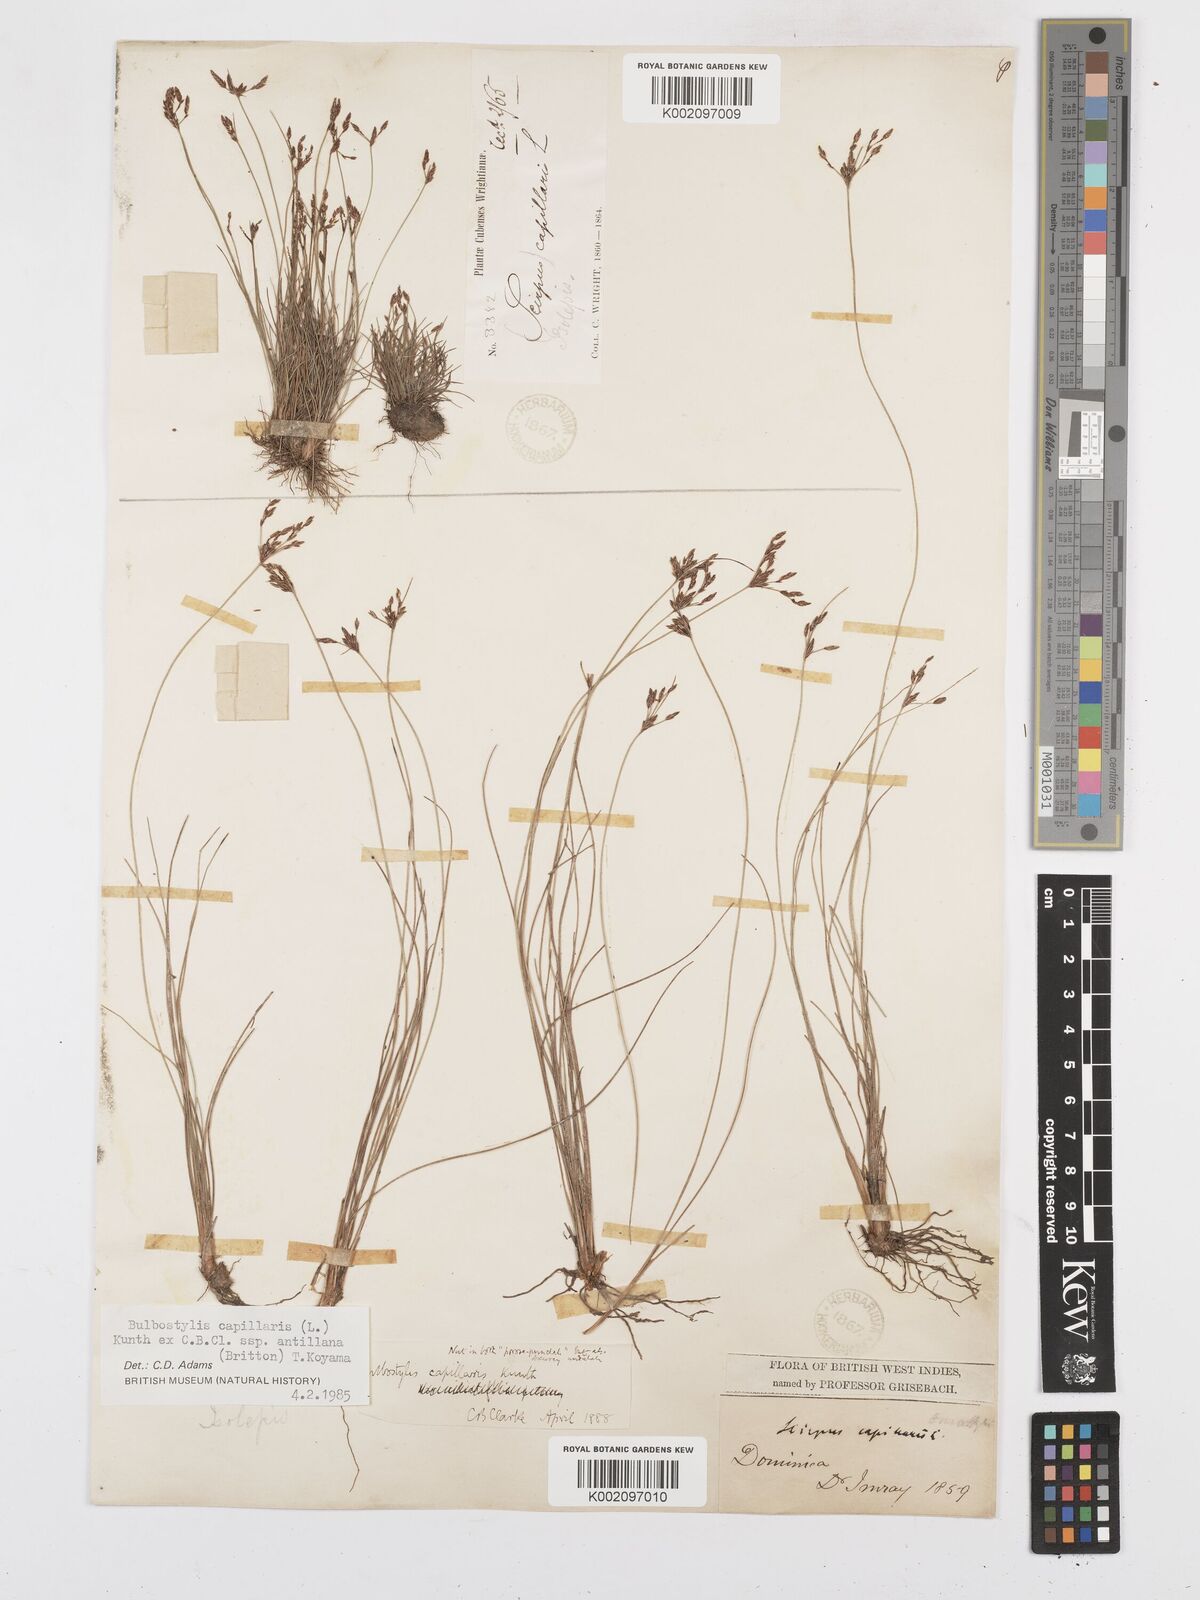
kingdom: Plantae
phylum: Tracheophyta
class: Liliopsida
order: Poales
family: Cyperaceae
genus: Bulbostylis
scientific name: Bulbostylis capillaris
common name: Densetuft hairsedge
